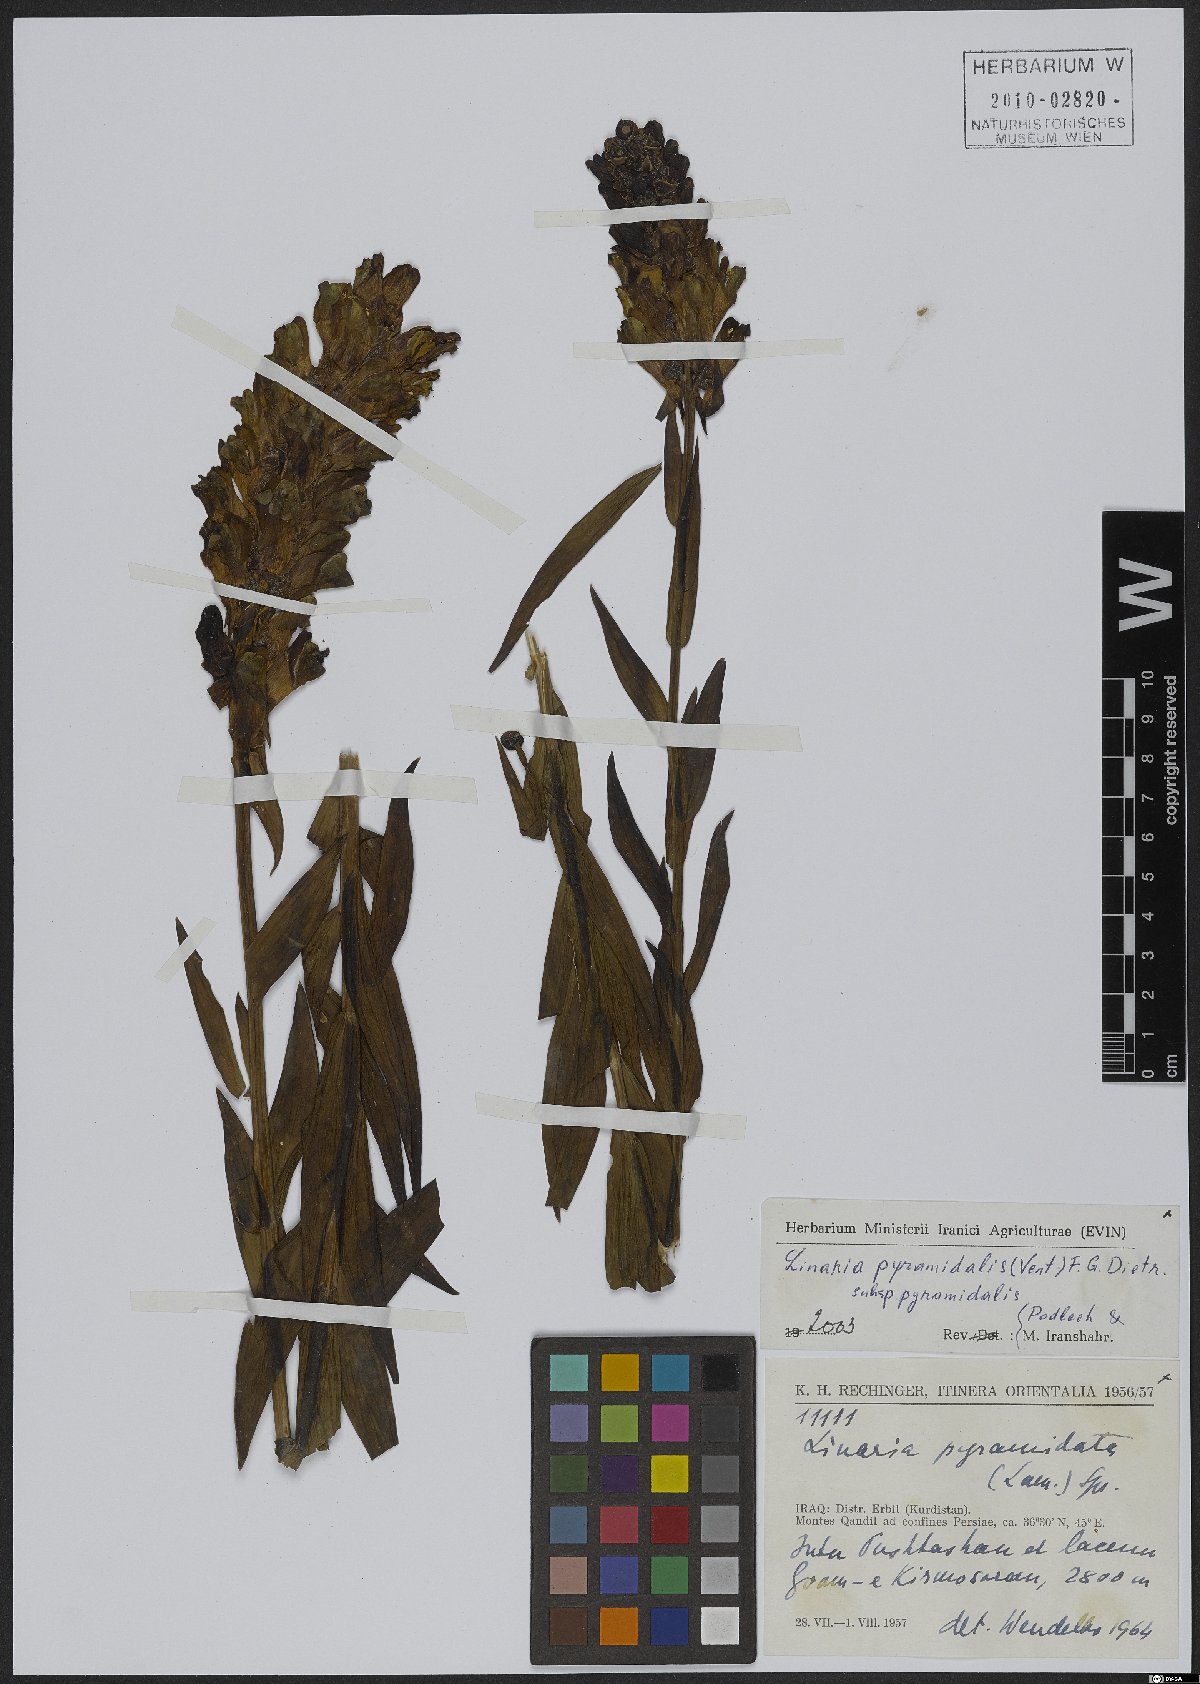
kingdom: Plantae
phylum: Tracheophyta
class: Magnoliopsida
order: Lamiales
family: Plantaginaceae
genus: Linaria
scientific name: Linaria pyramidalis
